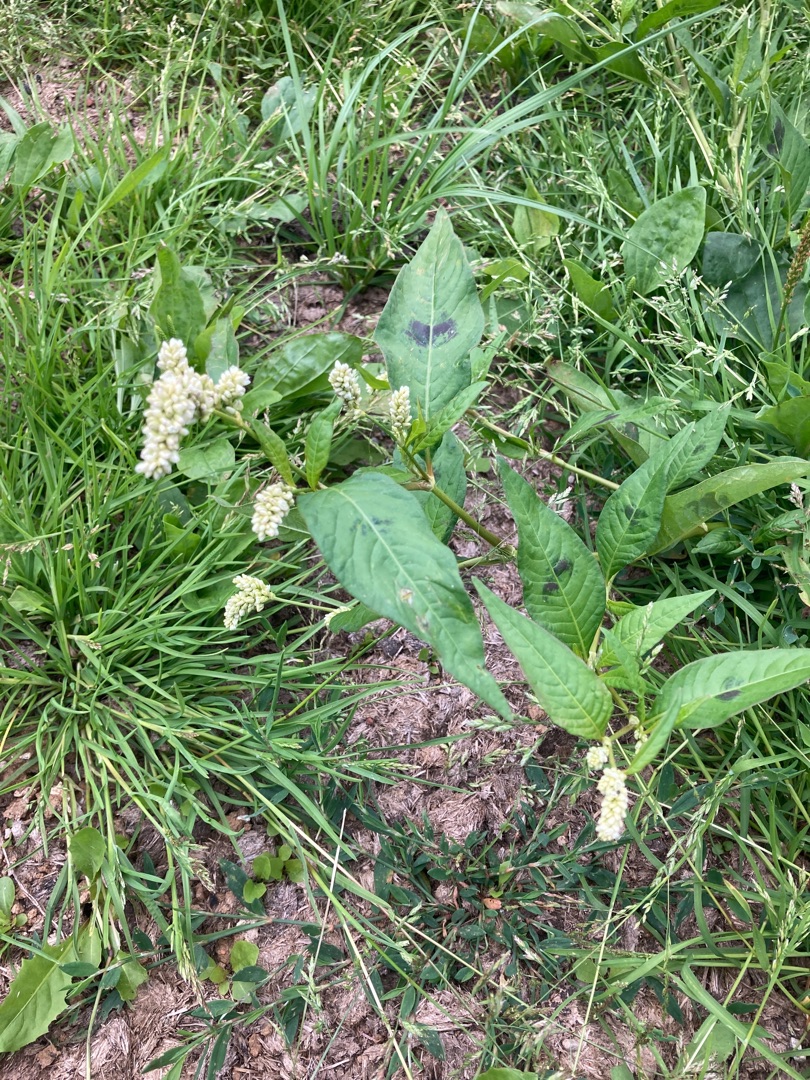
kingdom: Plantae
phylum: Tracheophyta
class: Magnoliopsida
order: Caryophyllales
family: Polygonaceae
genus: Persicaria
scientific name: Persicaria lapathifolia
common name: Knudet pileurt
